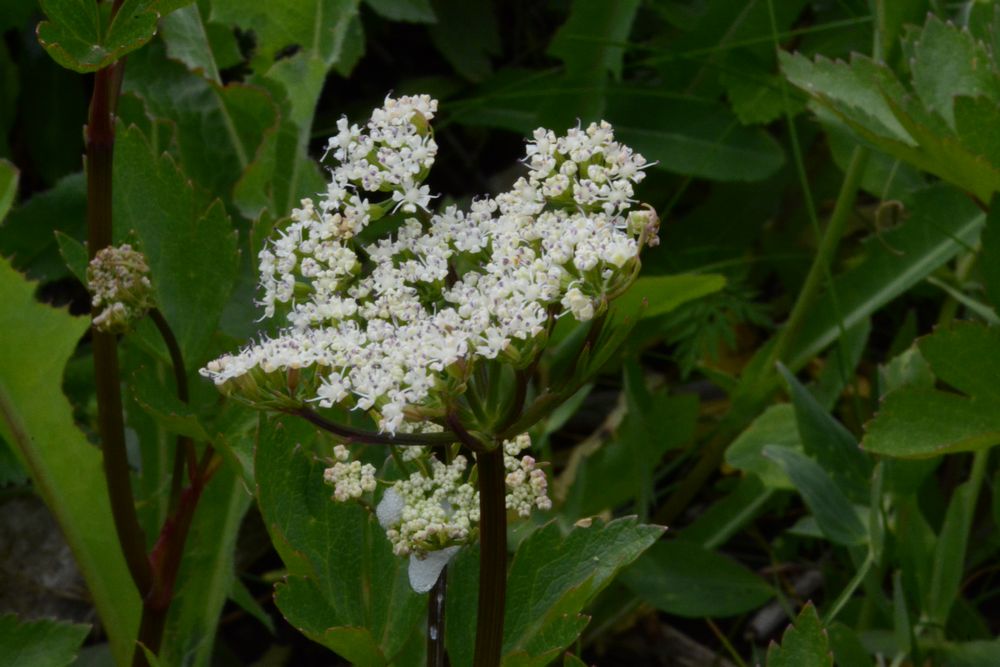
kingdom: Plantae
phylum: Tracheophyta
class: Magnoliopsida
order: Apiales
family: Apiaceae
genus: Ligusticum
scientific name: Ligusticum scothicum
